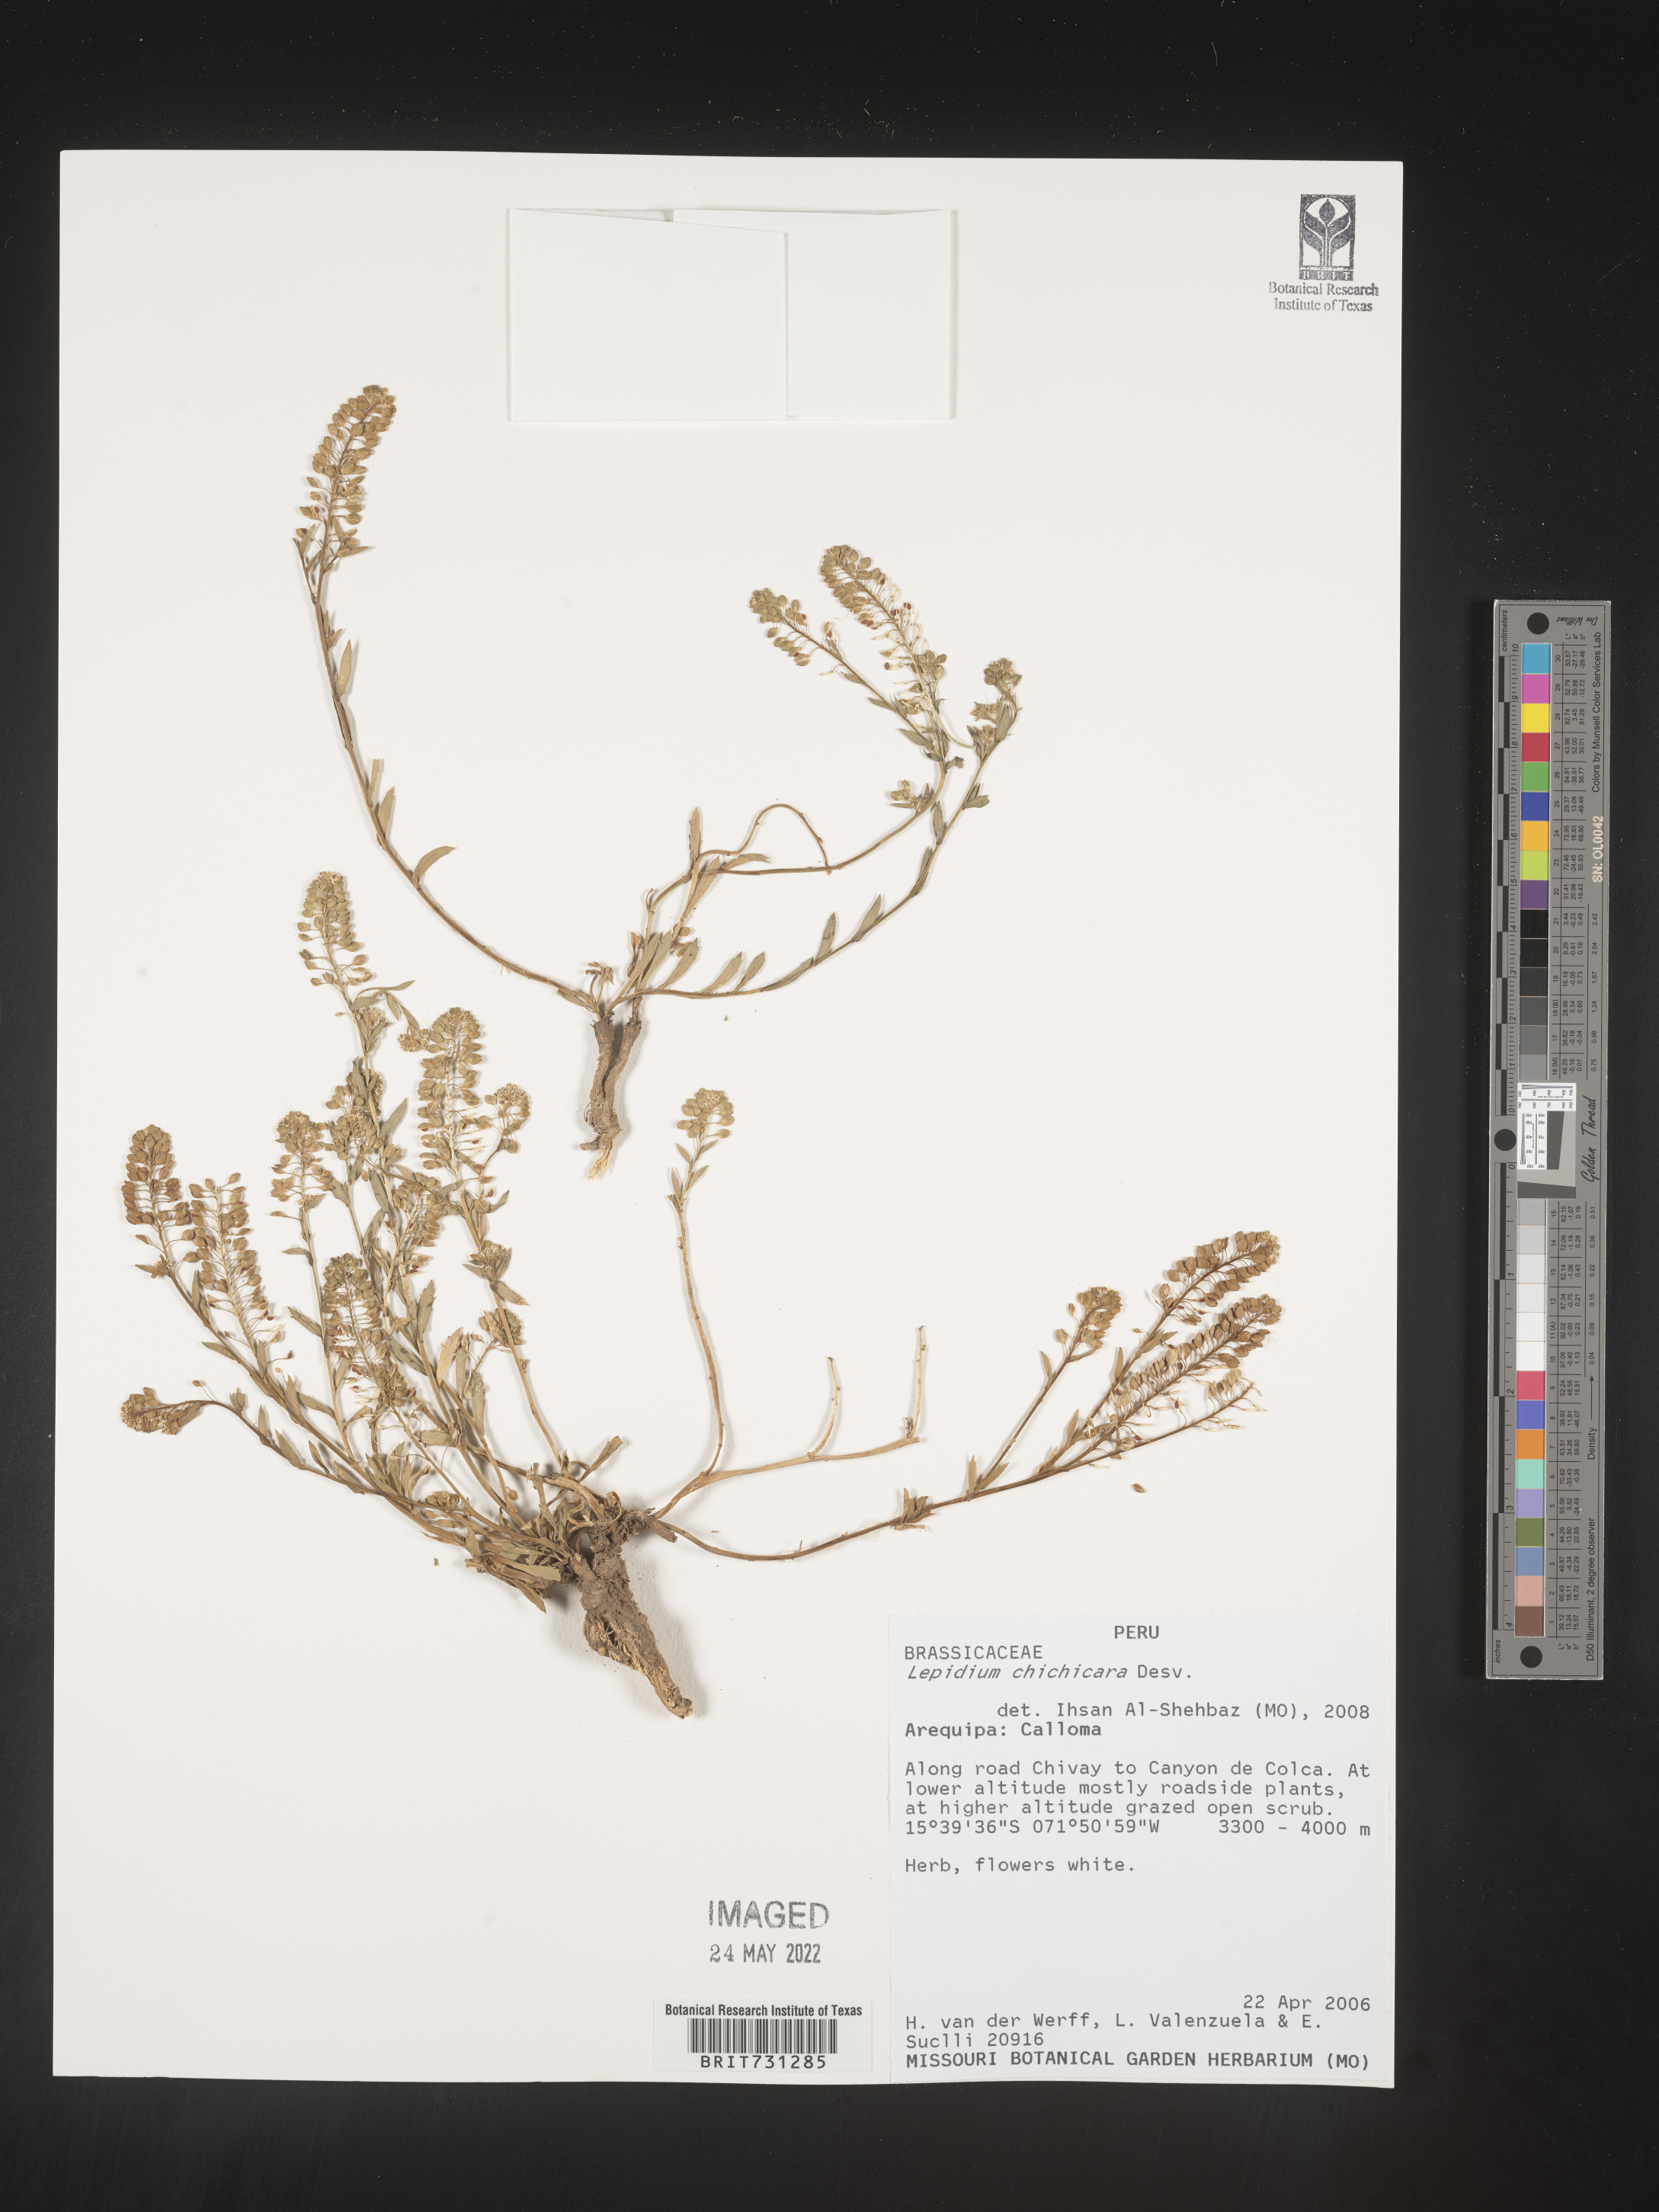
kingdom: Plantae
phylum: Tracheophyta
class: Magnoliopsida
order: Asterales
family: Asteraceae
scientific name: Asteraceae
